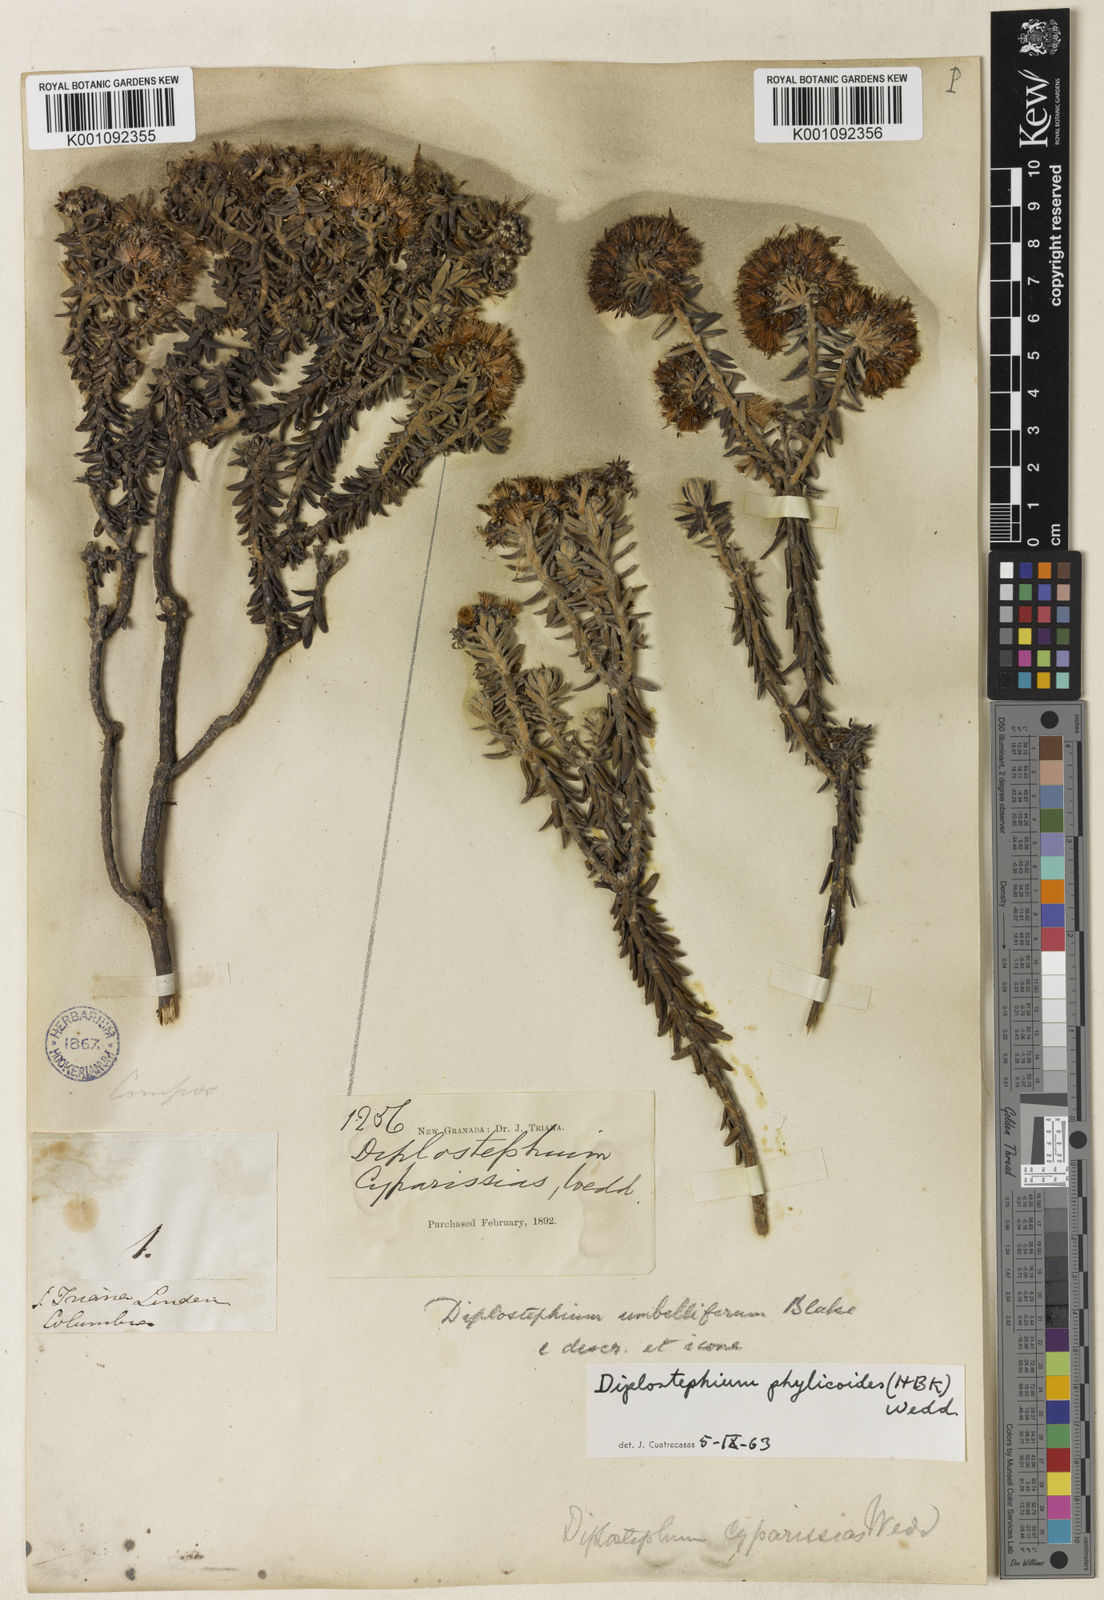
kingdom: Plantae
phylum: Tracheophyta
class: Magnoliopsida
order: Asterales
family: Asteraceae
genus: Linochilus
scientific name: Linochilus phylicoides
